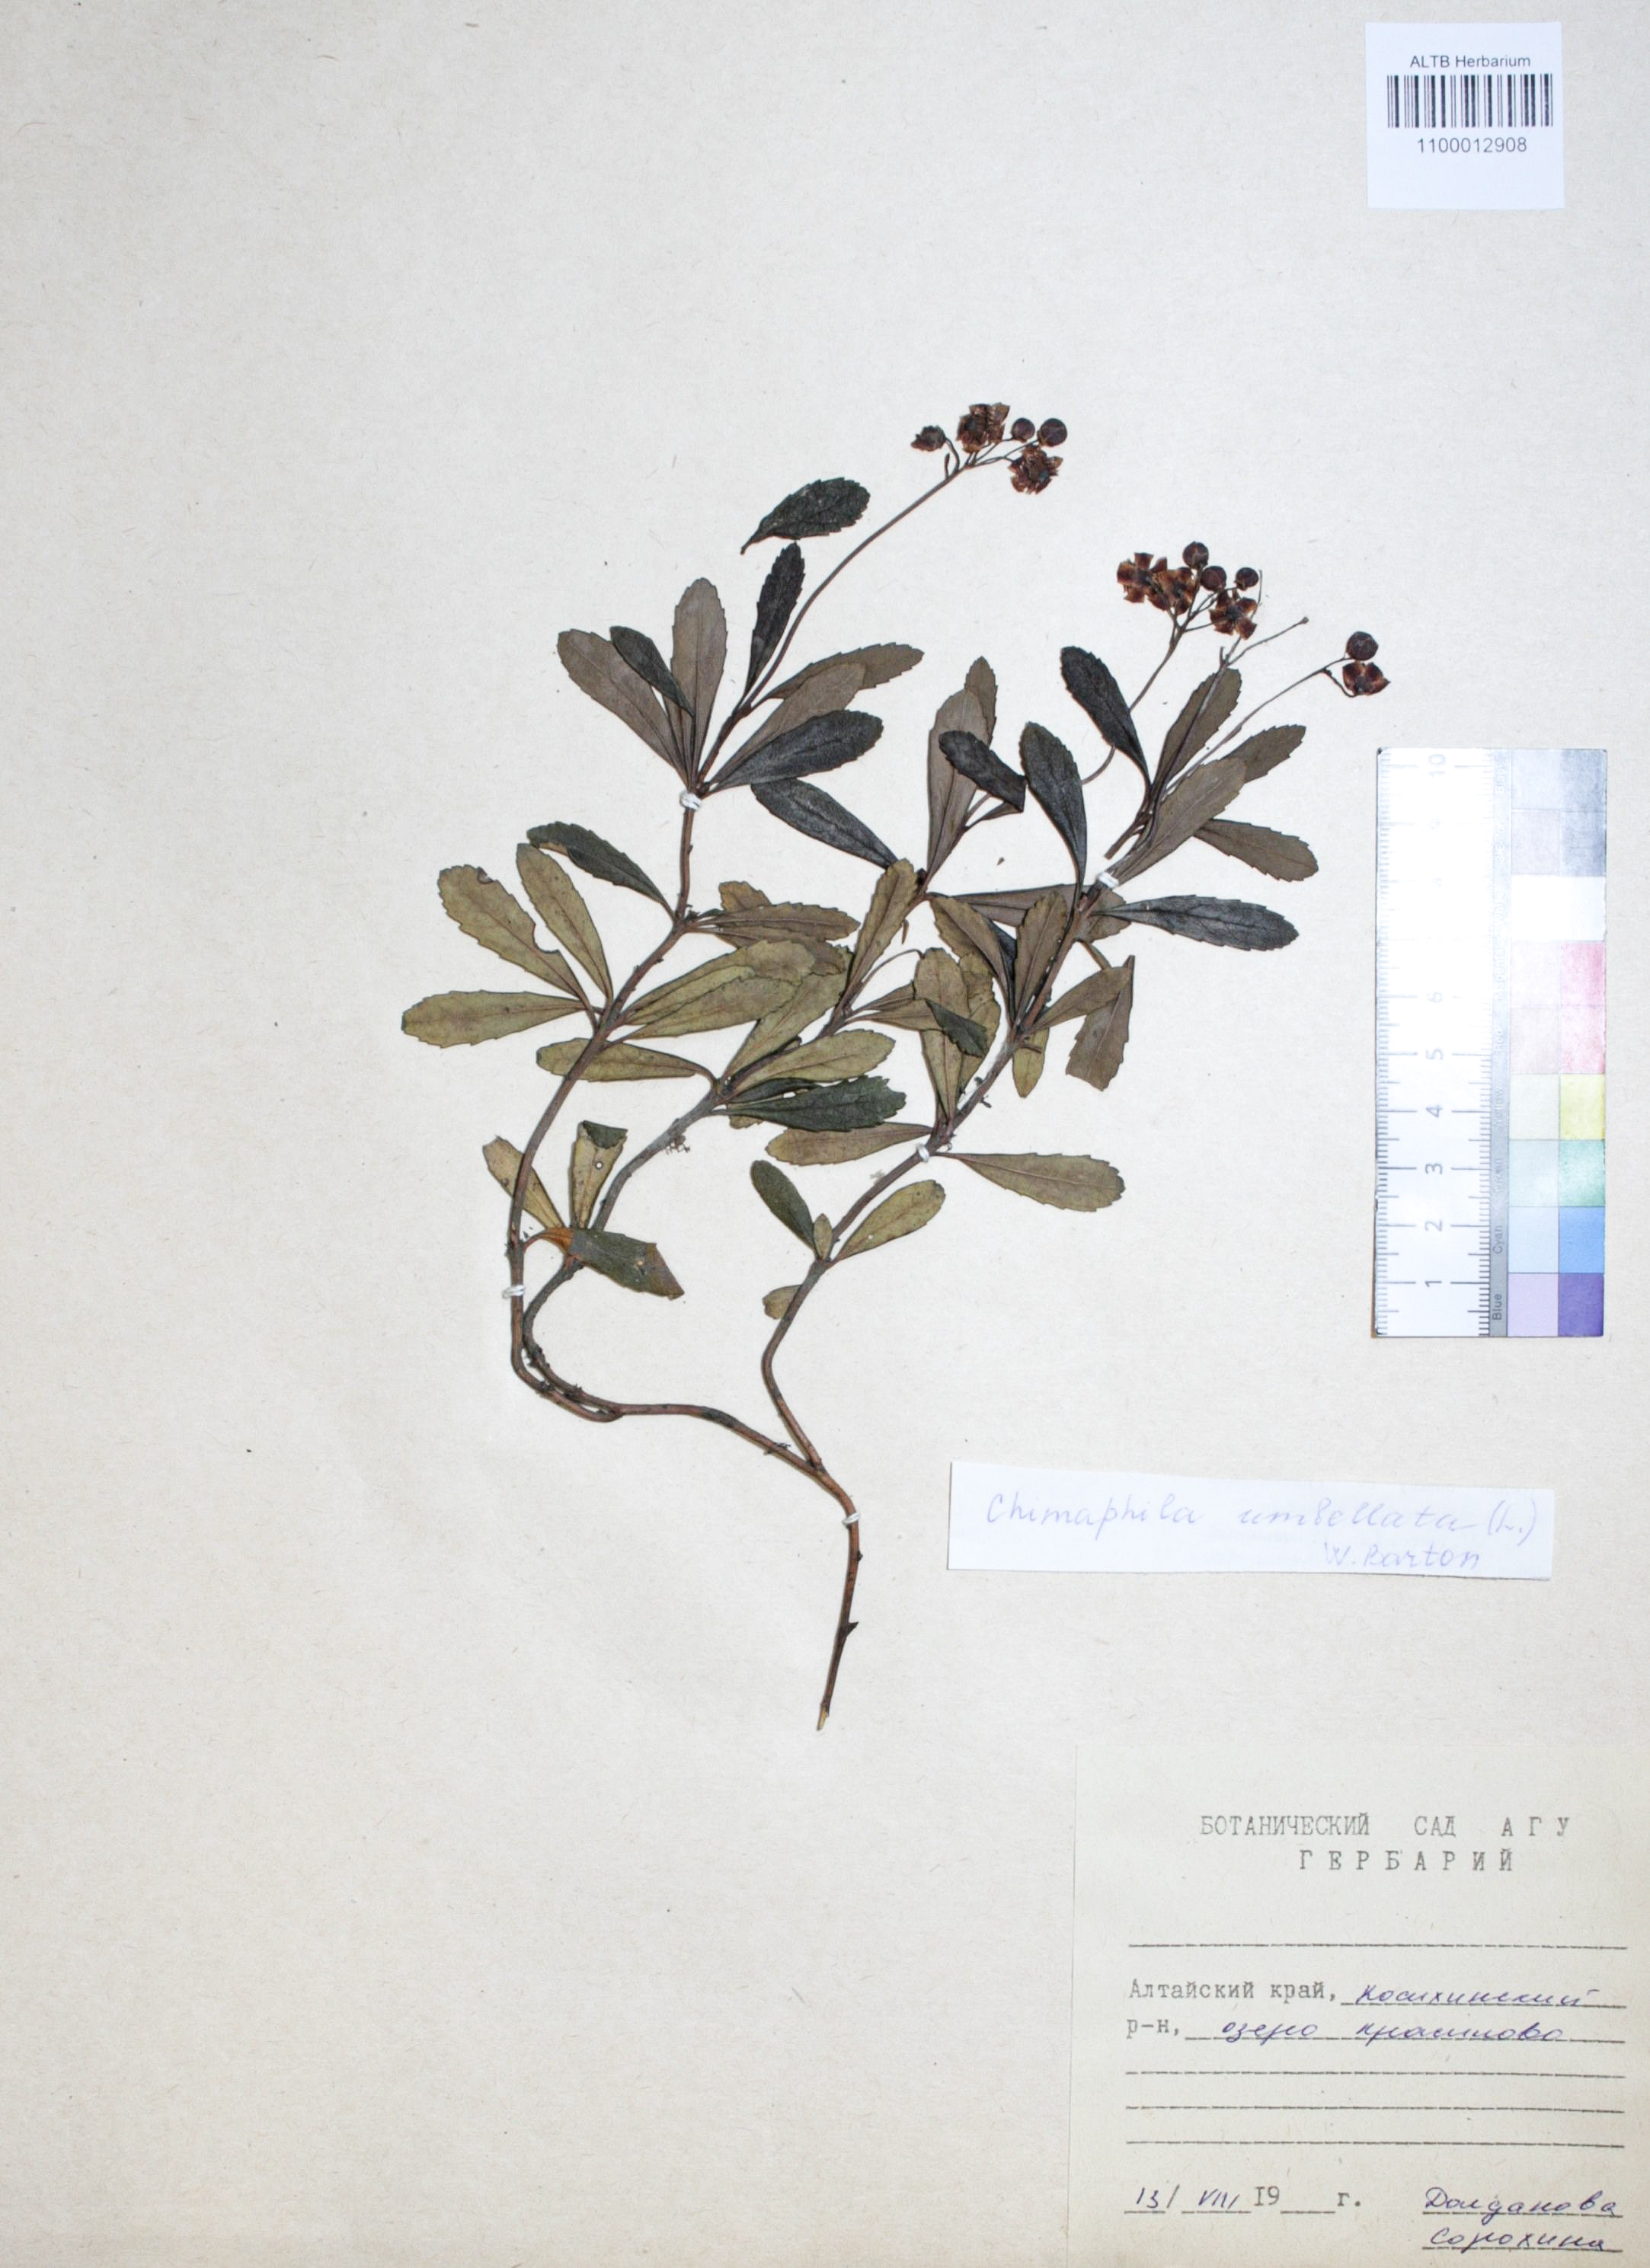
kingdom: Plantae
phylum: Tracheophyta
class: Magnoliopsida
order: Ericales
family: Ericaceae
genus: Chimaphila
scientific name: Chimaphila umbellata
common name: Pipsissewa
